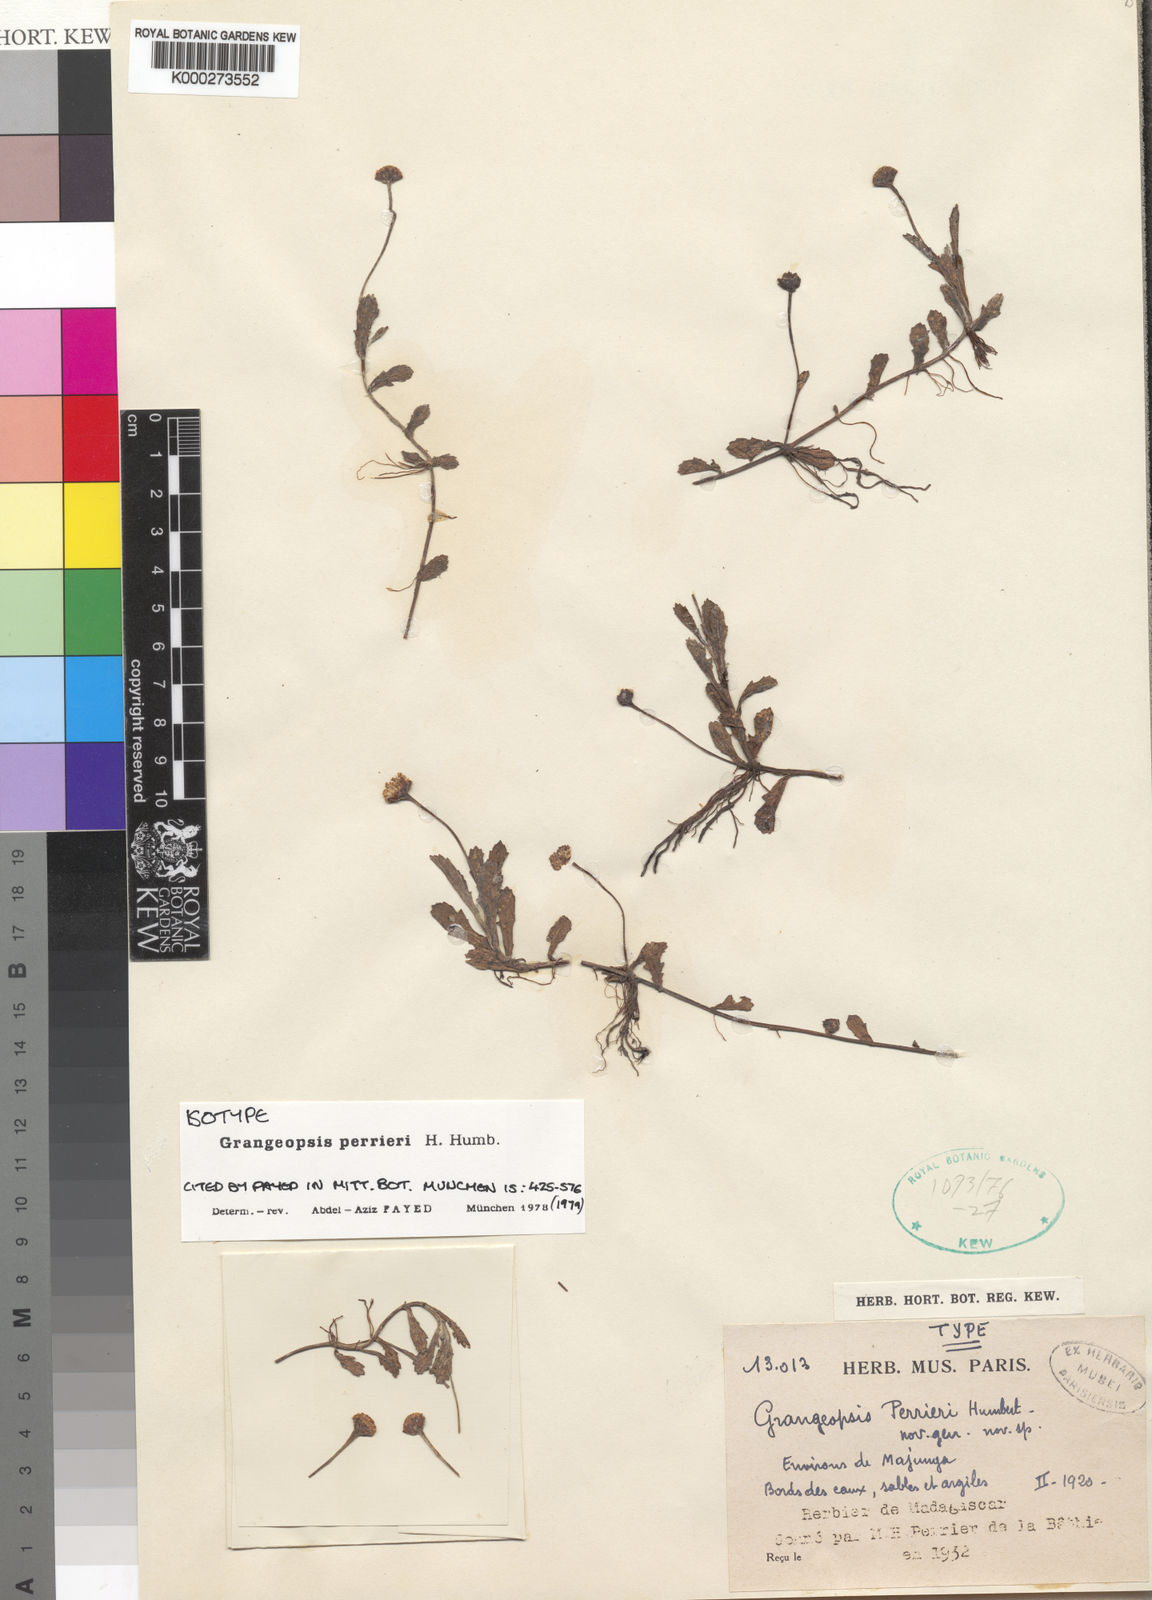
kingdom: Plantae
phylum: Tracheophyta
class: Magnoliopsida
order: Asterales
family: Asteraceae
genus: Grangeopsis
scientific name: Grangeopsis perrieri
